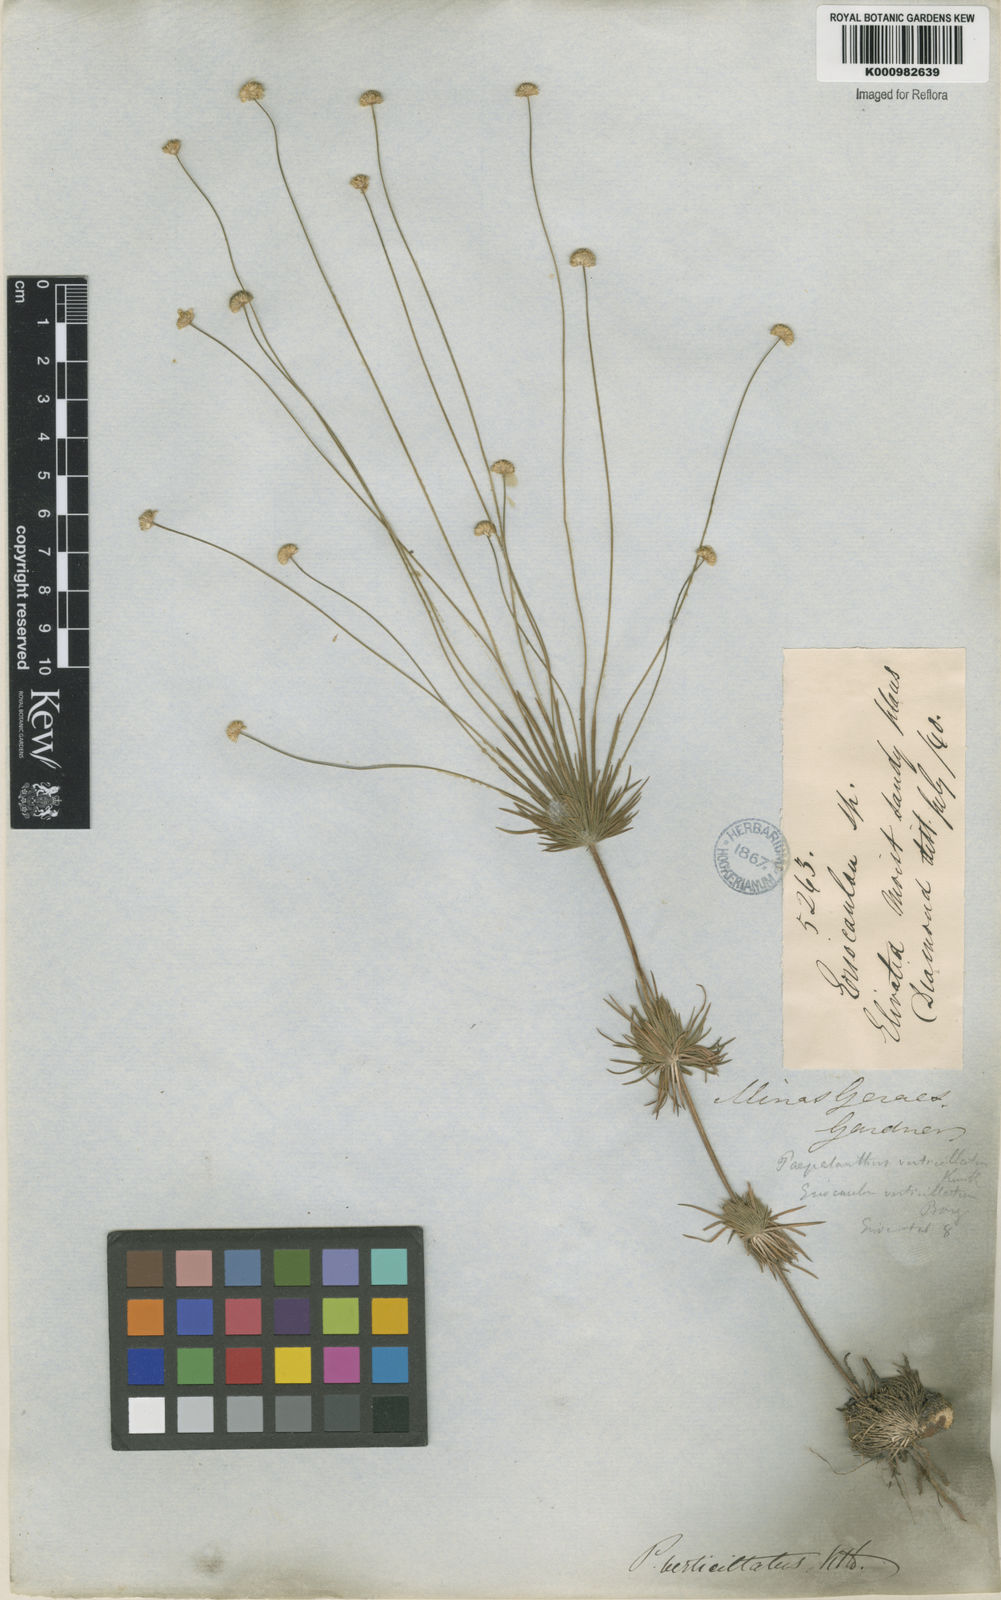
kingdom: Plantae
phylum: Tracheophyta
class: Liliopsida
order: Poales
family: Eriocaulaceae
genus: Syngonanthus
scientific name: Syngonanthus verticillatus
